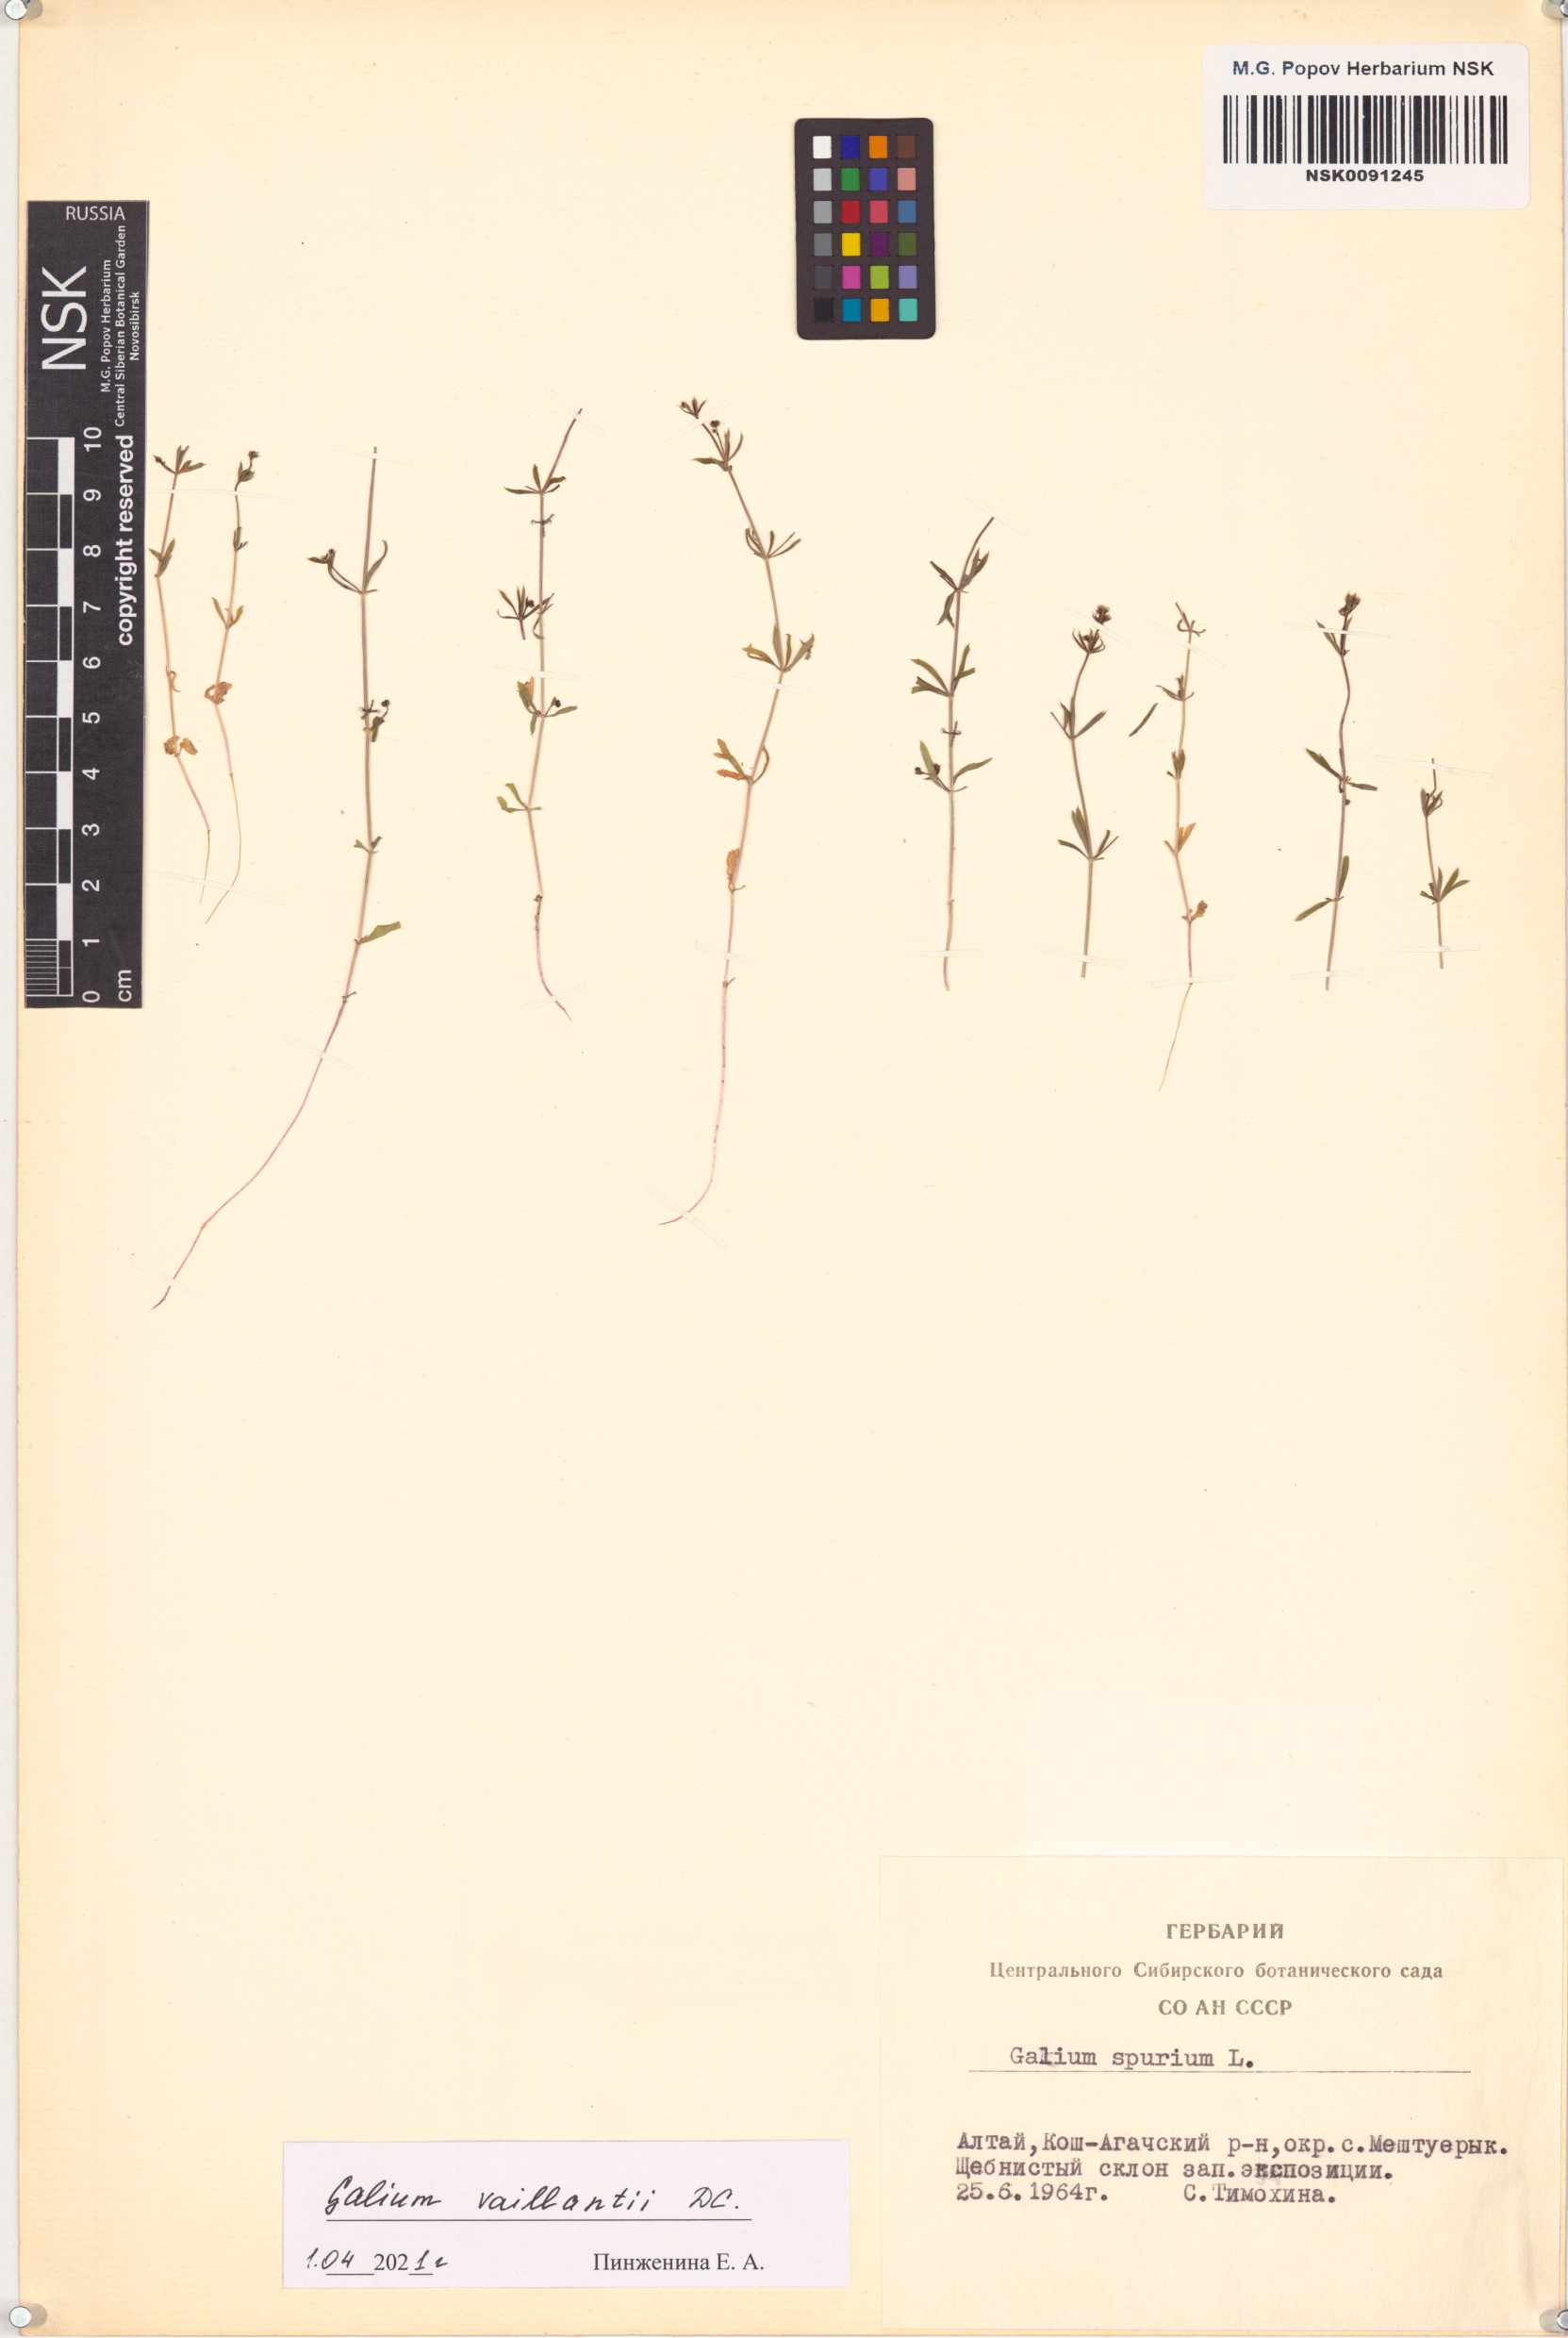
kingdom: Plantae
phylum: Tracheophyta
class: Magnoliopsida
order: Gentianales
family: Rubiaceae
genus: Galium
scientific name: Galium spurium
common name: False cleavers
